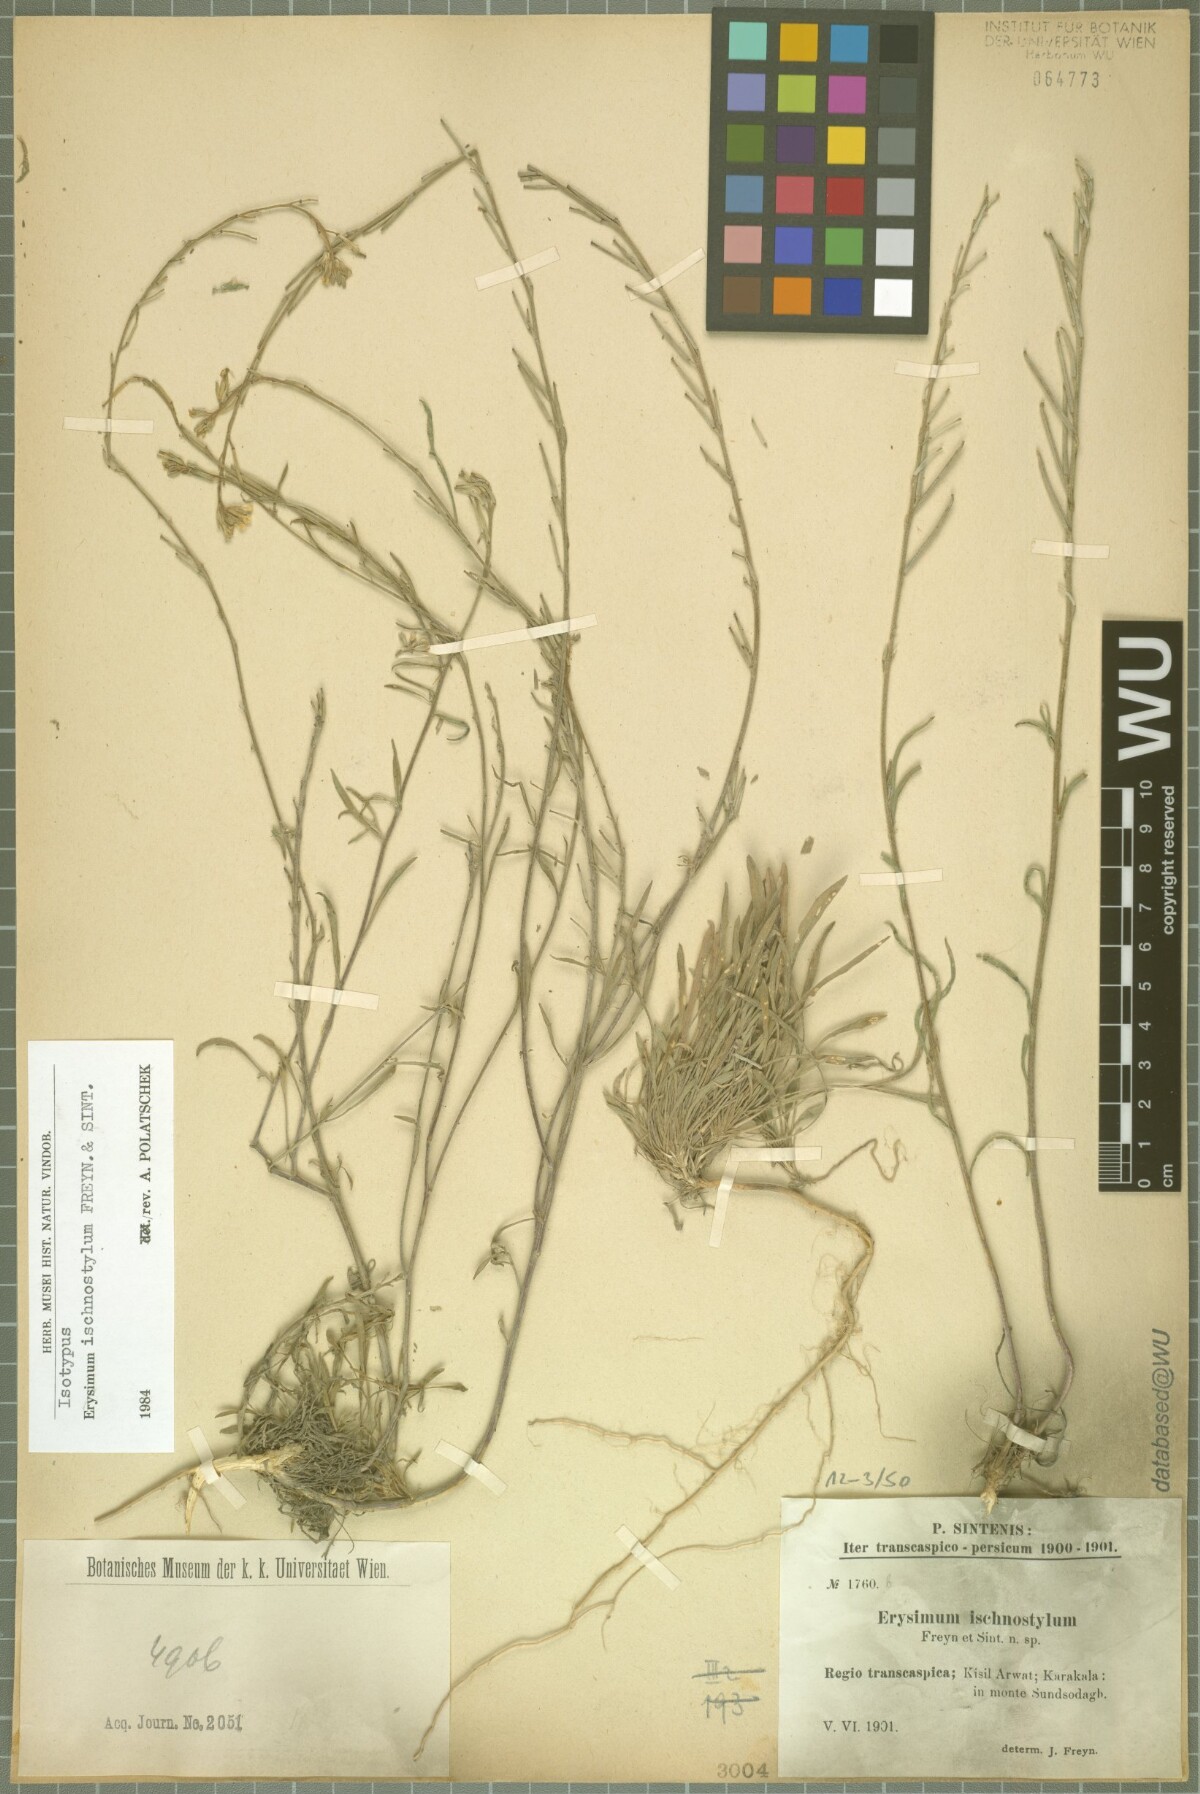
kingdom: Plantae
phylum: Tracheophyta
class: Magnoliopsida
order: Brassicales
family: Brassicaceae
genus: Erysimum
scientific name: Erysimum ischnostylum
